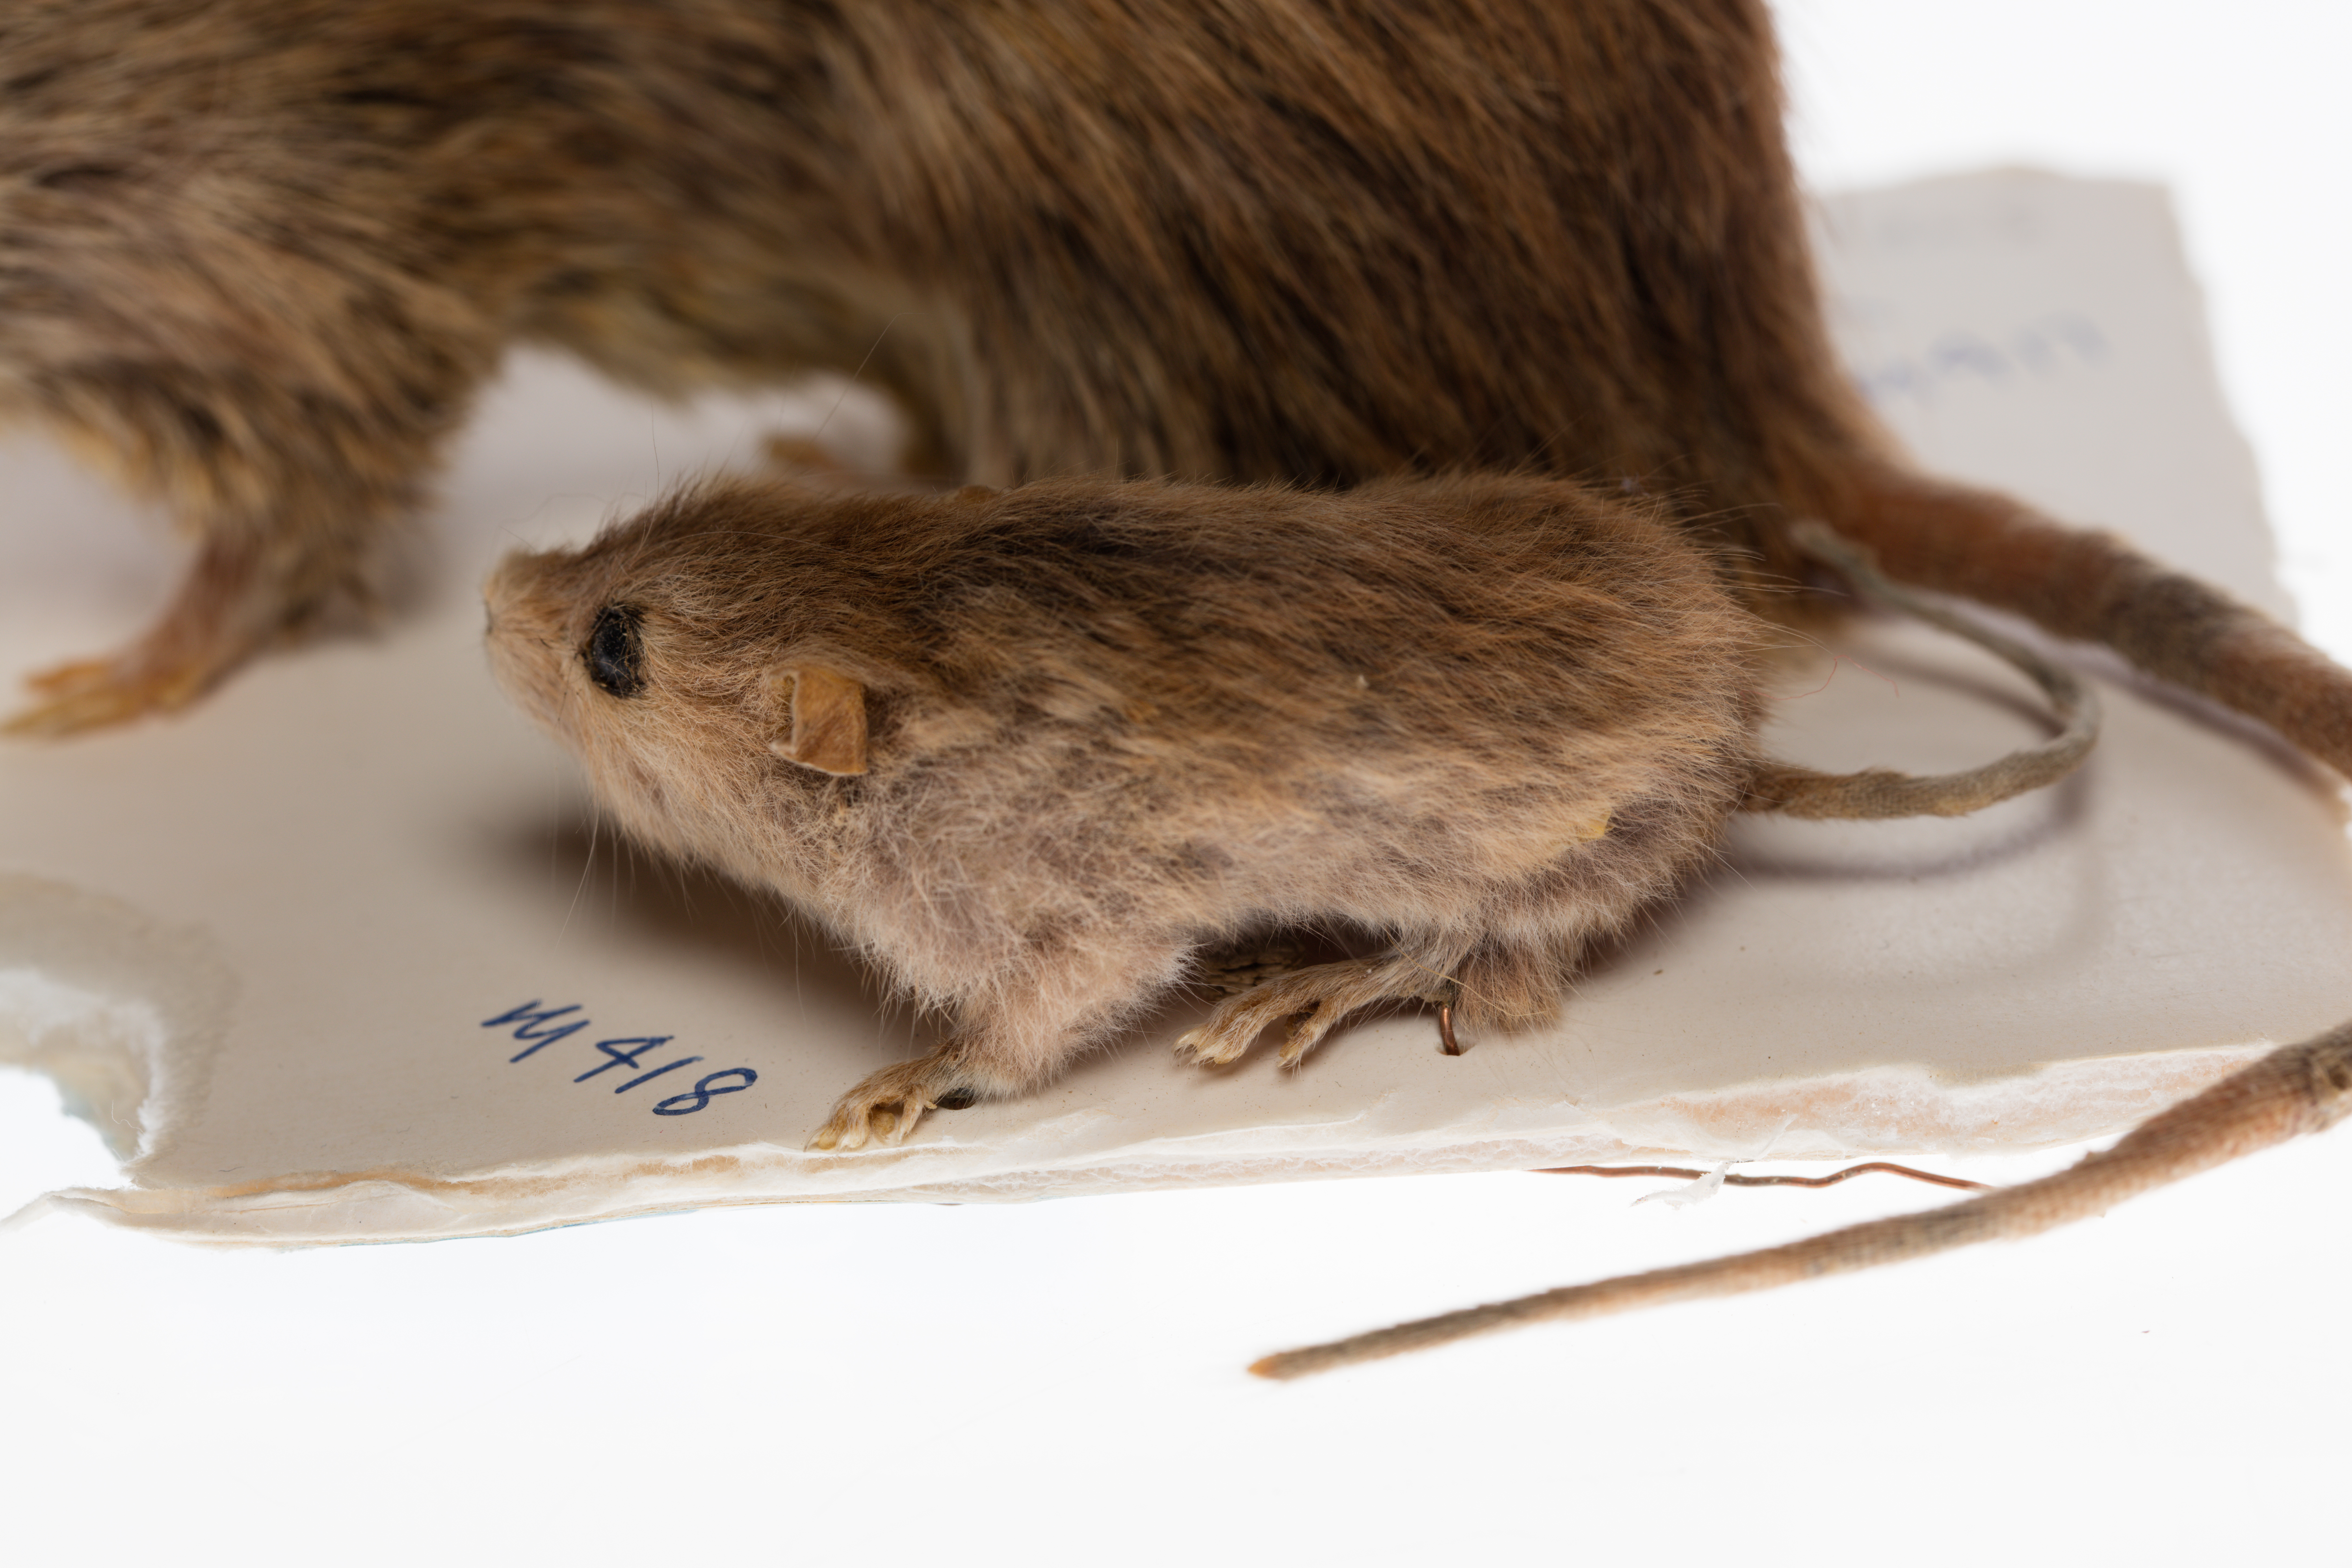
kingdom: Animalia
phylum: Chordata
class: Mammalia
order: Rodentia
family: Muridae
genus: Rattus
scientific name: Rattus exulans
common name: Polynesian rat
